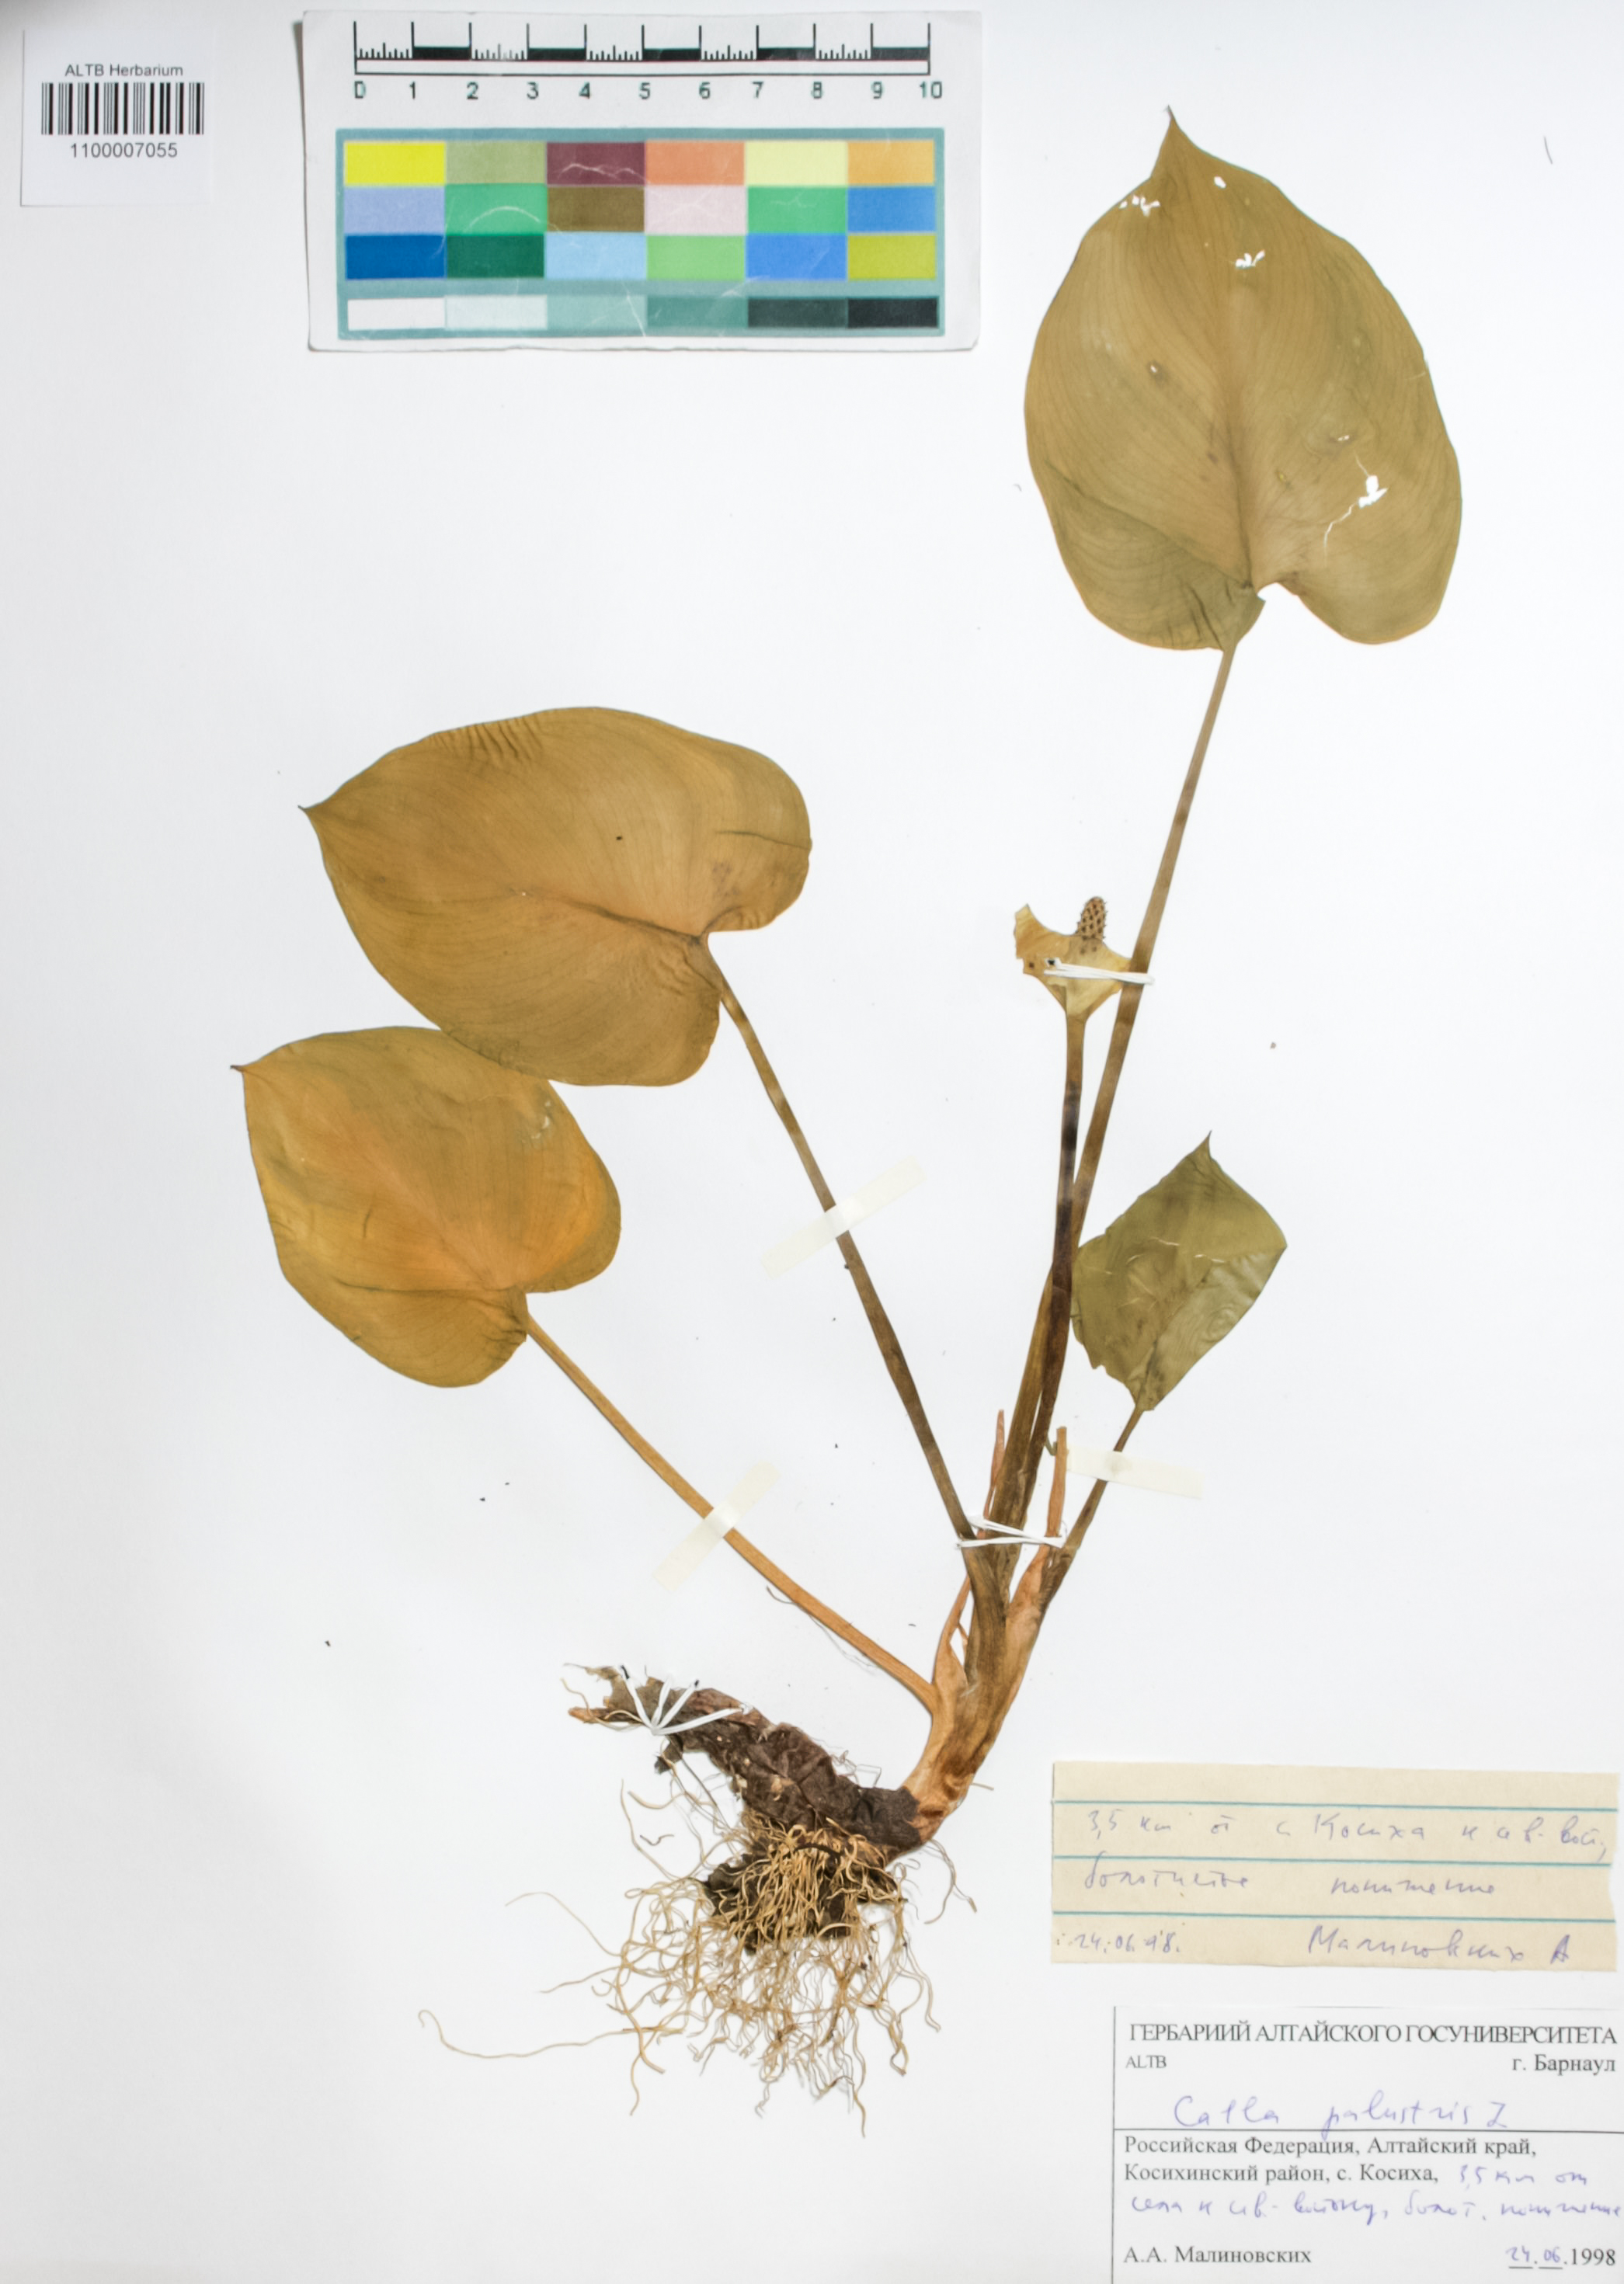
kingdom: Plantae
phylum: Tracheophyta
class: Liliopsida
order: Alismatales
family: Araceae
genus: Calla
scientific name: Calla palustris
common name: Bog arum
